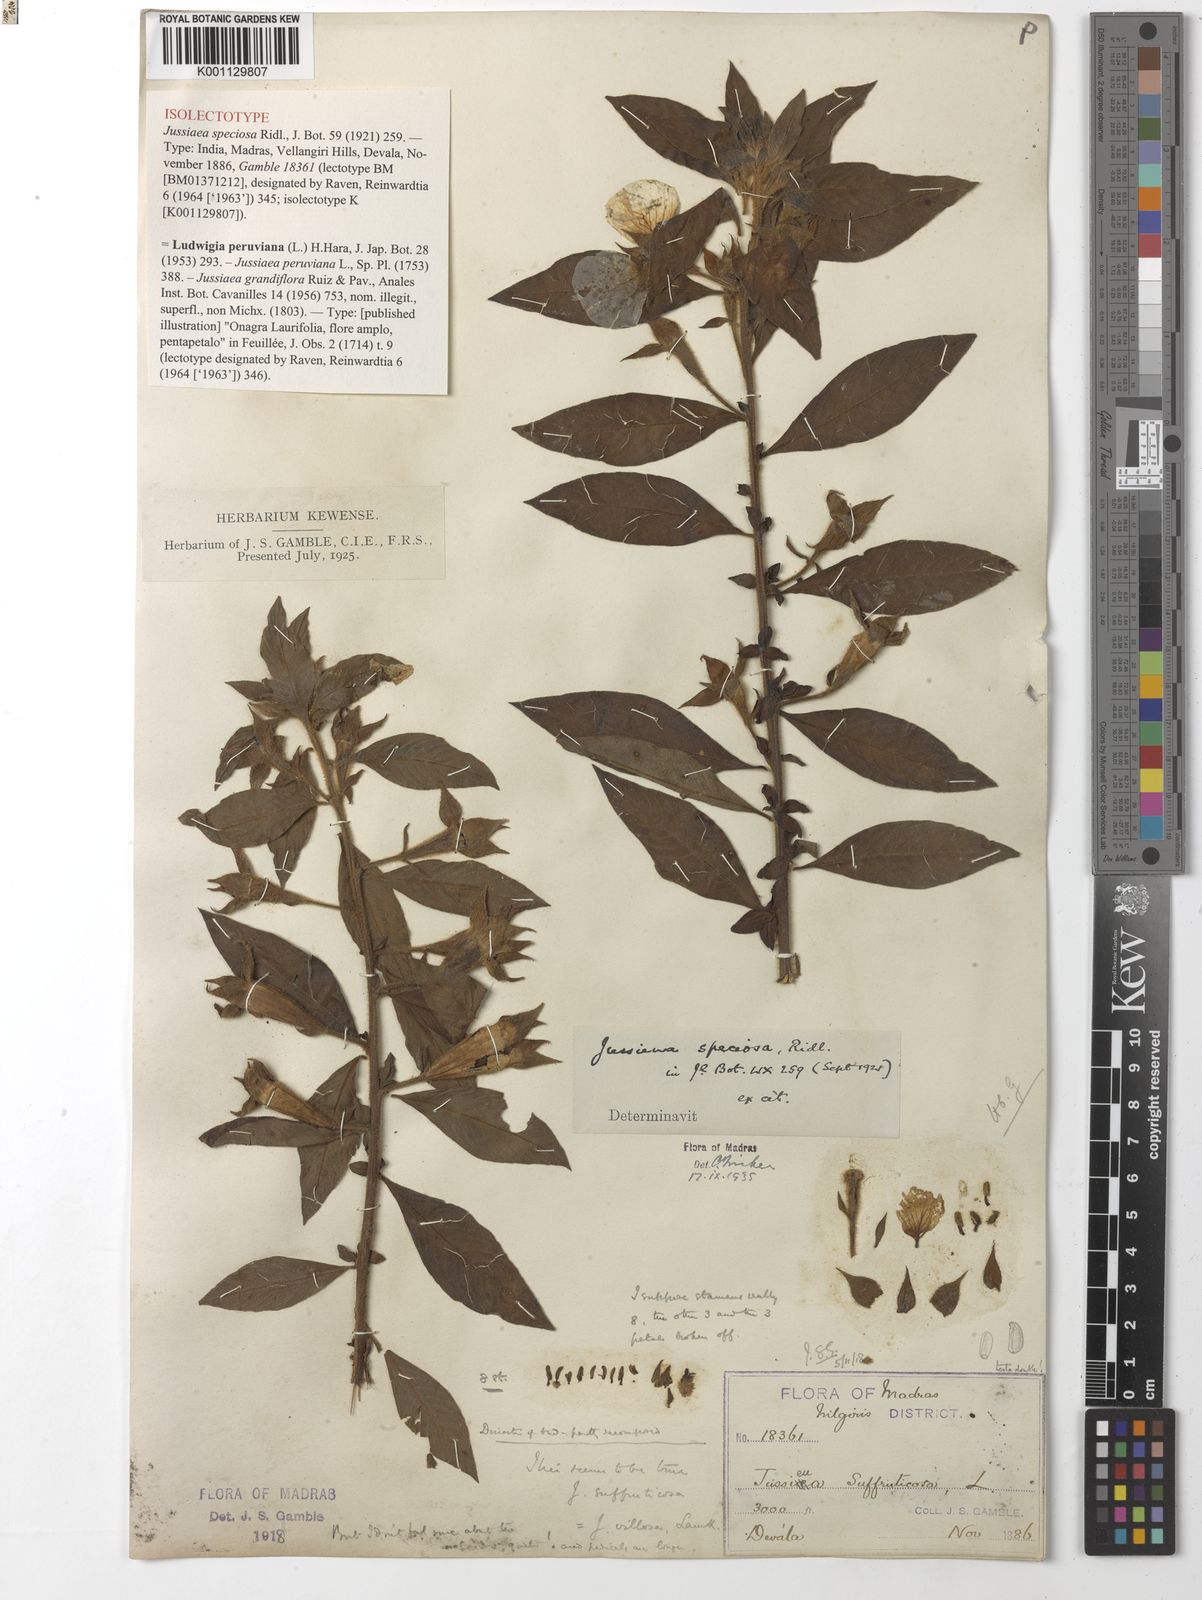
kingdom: Plantae
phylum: Tracheophyta
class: Magnoliopsida
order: Myrtales
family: Onagraceae
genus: Ludwigia
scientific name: Ludwigia peruviana
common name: Peruvian primrose-willow
